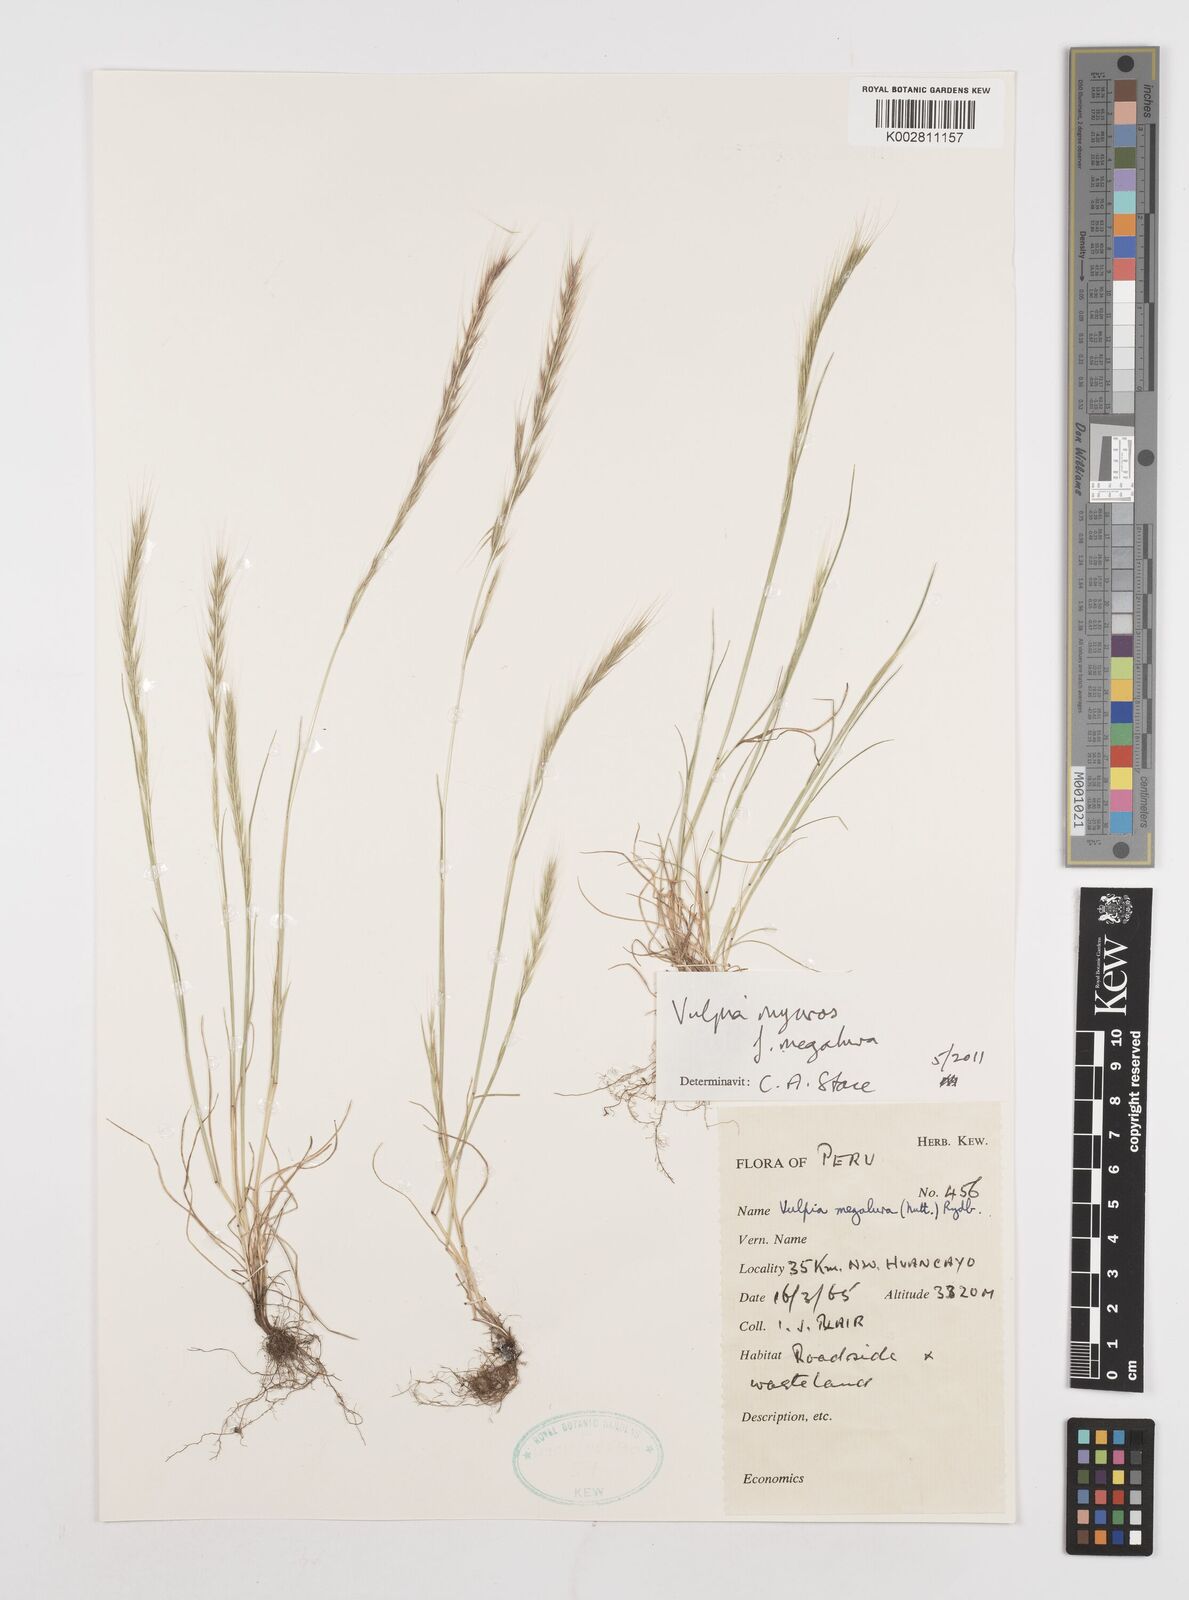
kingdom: Plantae
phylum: Tracheophyta
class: Liliopsida
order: Poales
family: Poaceae
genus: Festuca
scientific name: Festuca myuros
